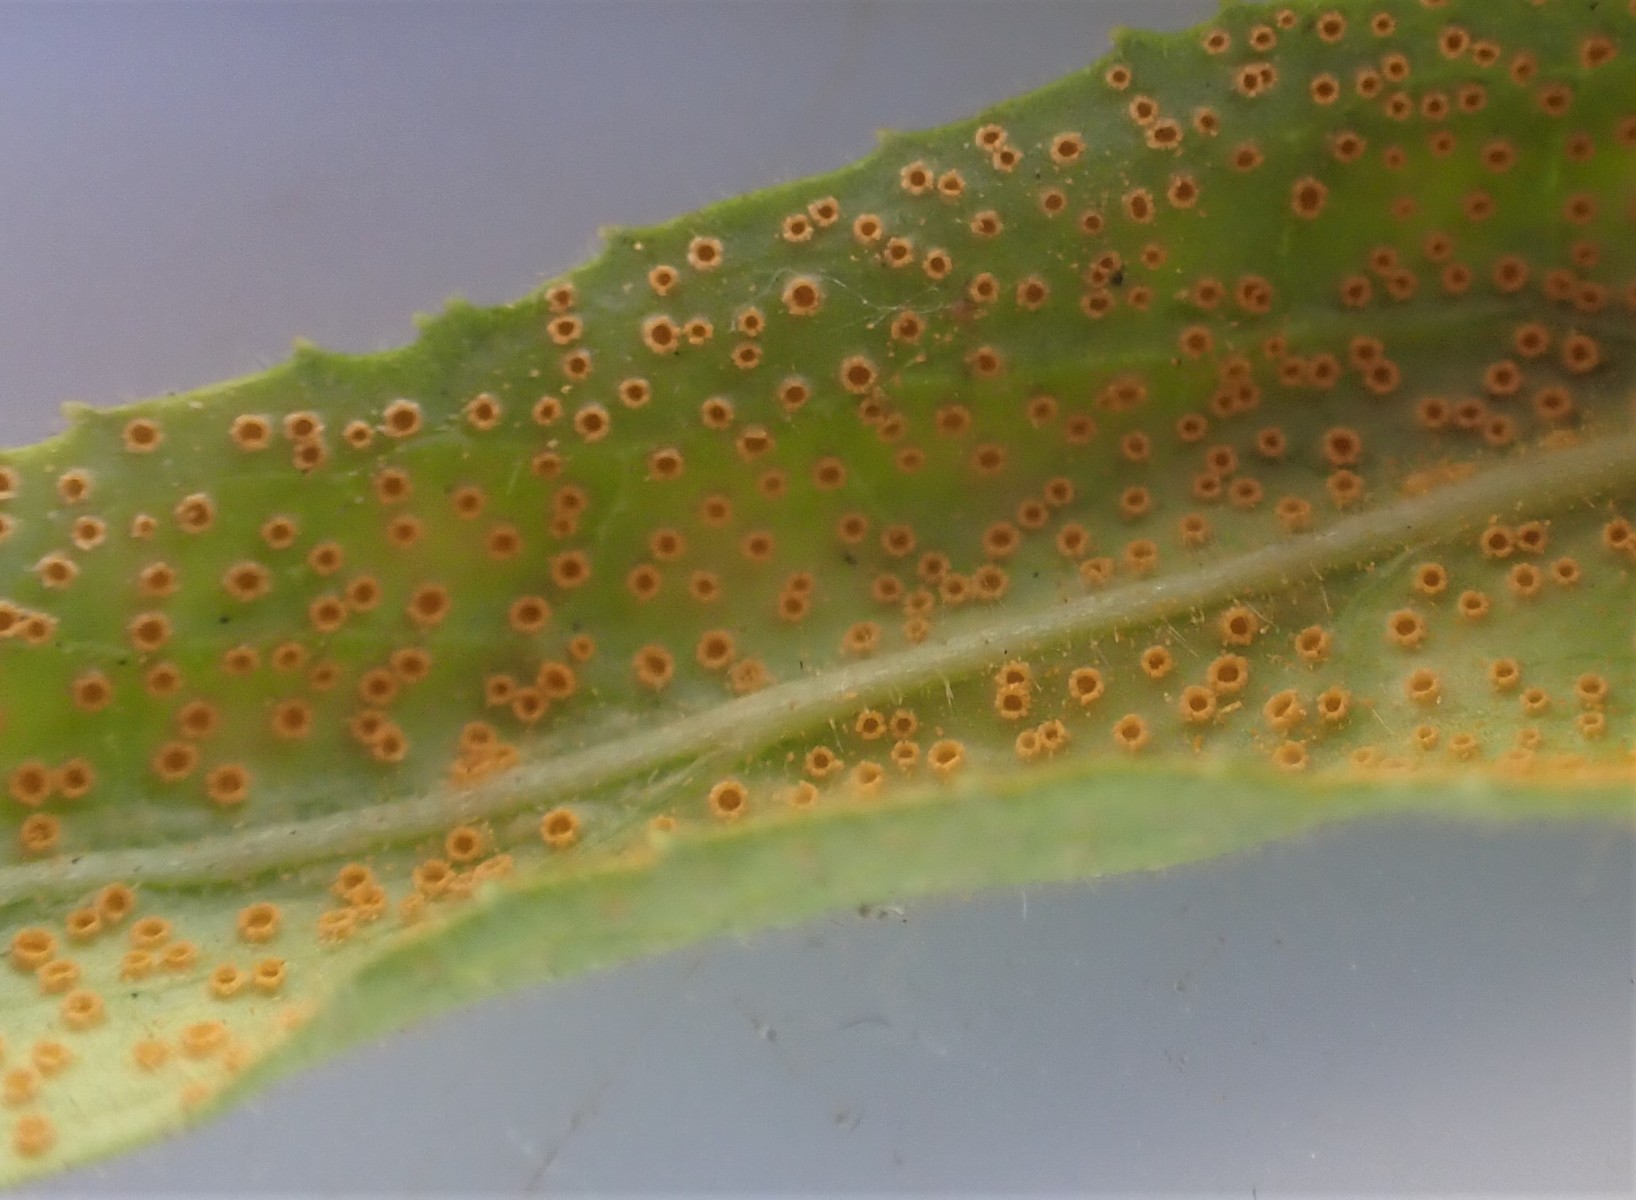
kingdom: Fungi
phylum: Basidiomycota
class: Pucciniomycetes
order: Pucciniales
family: Pucciniaceae
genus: Puccinia
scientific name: Puccinia pulverulenta
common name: dueurt-tvecellerust
